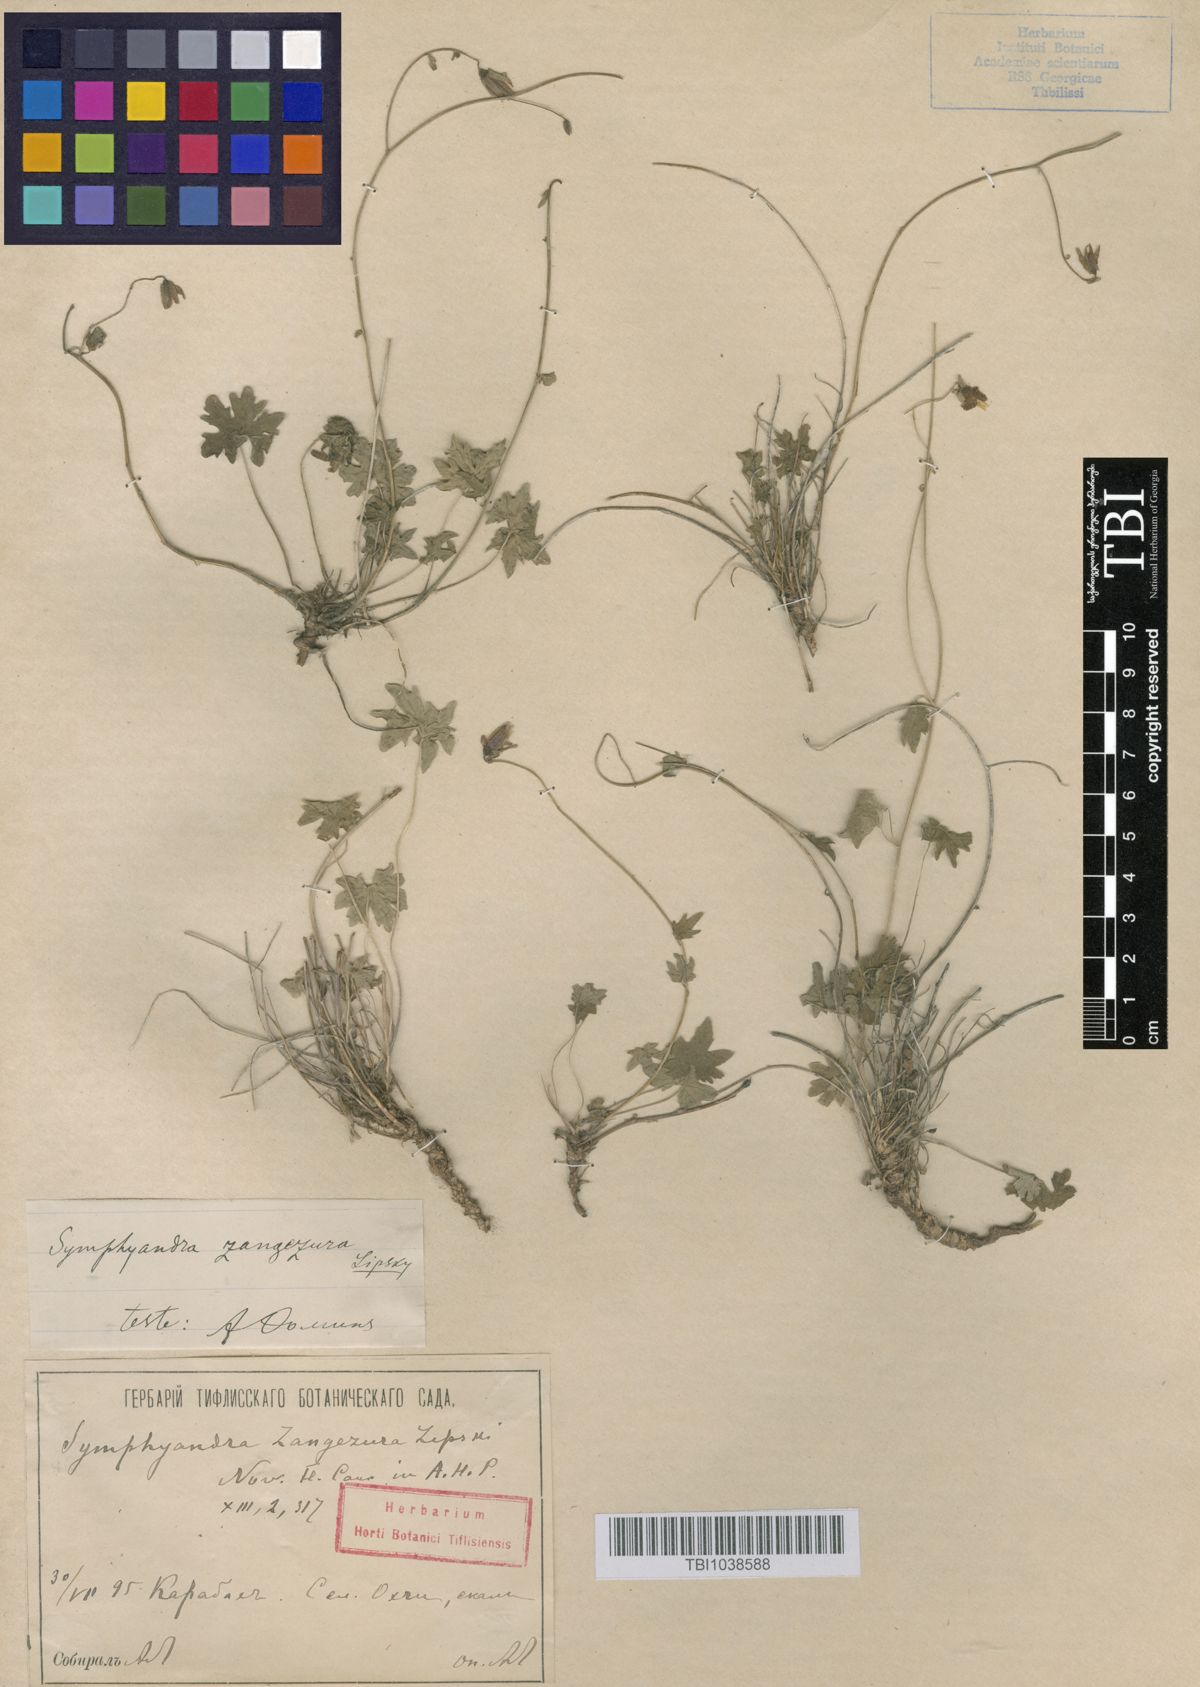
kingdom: Plantae
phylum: Tracheophyta
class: Magnoliopsida
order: Asterales
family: Campanulaceae
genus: Campanula
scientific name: Campanula zangezura
